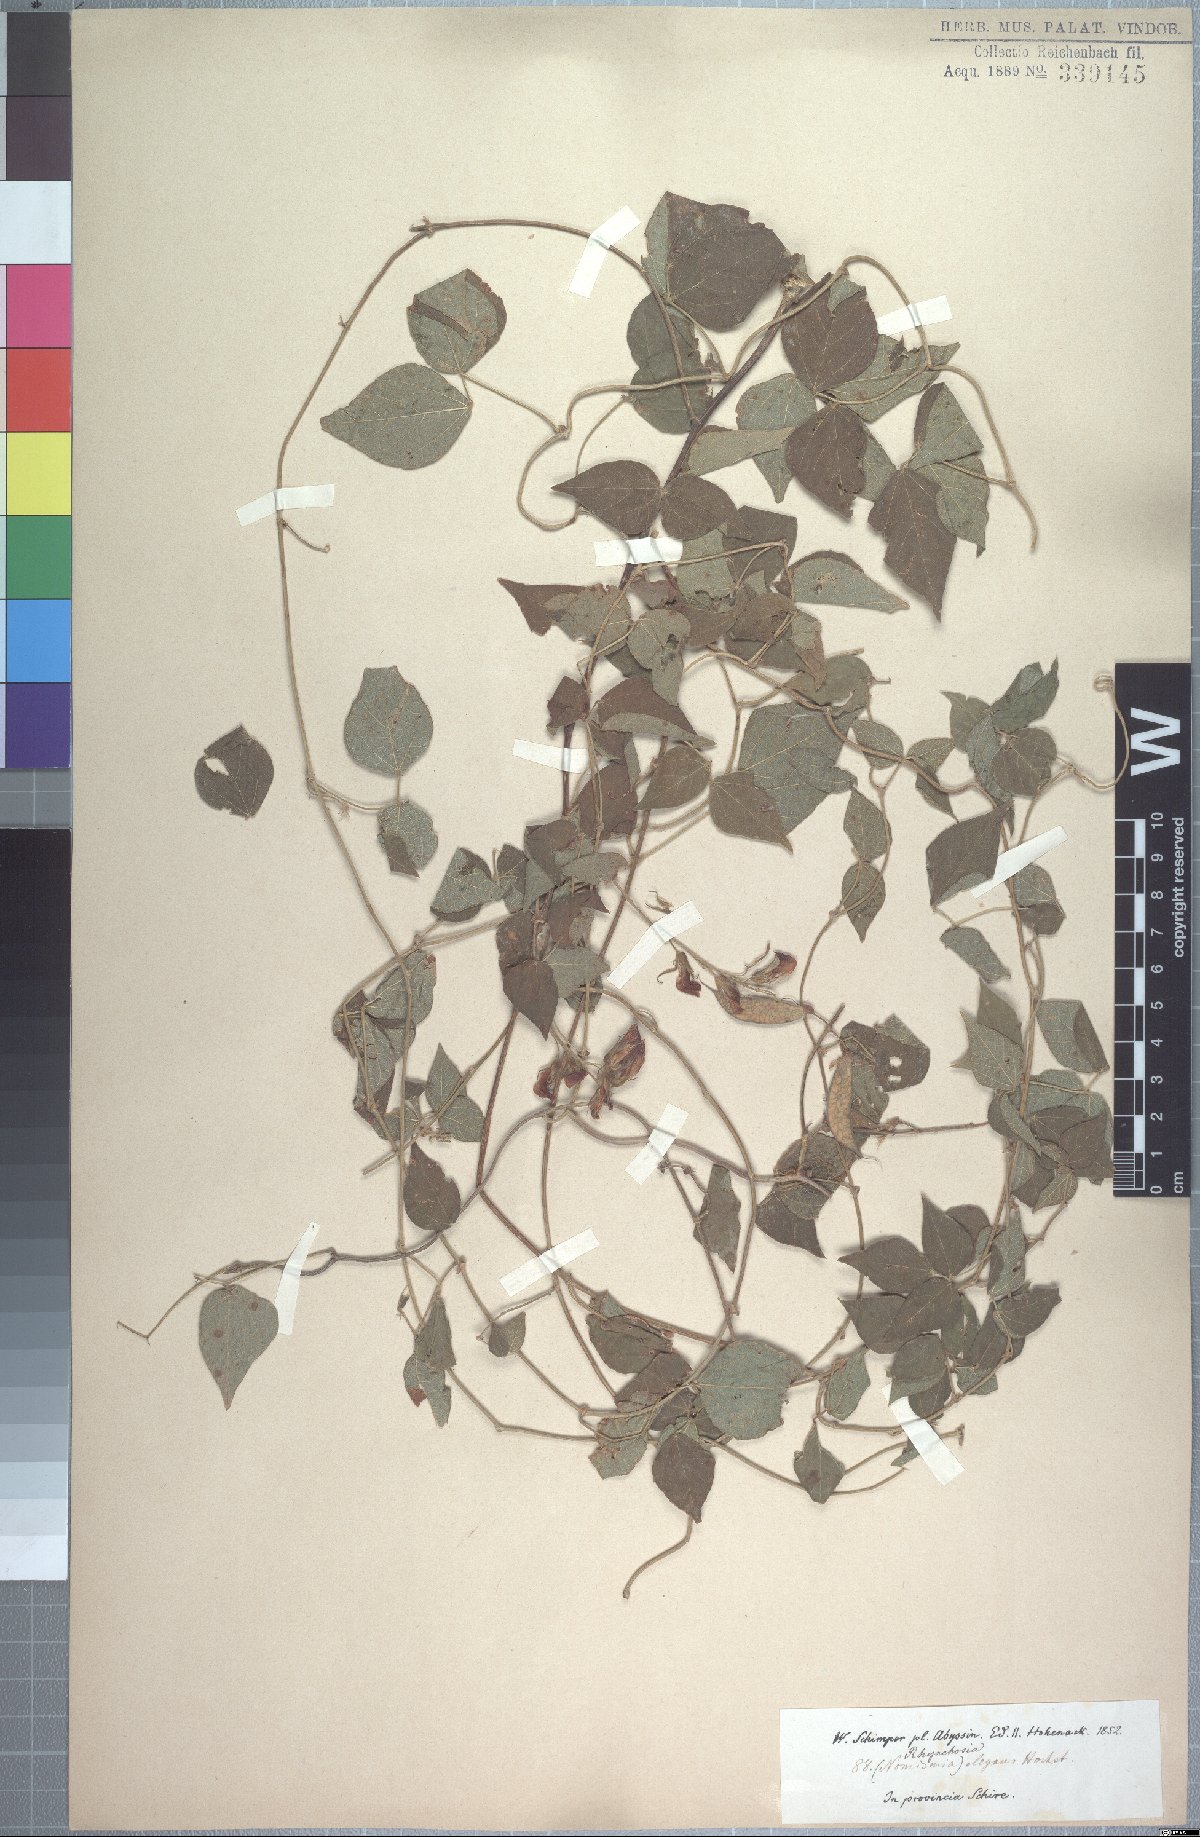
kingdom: Plantae
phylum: Tracheophyta
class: Magnoliopsida
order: Fabales
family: Fabaceae
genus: Rhynchosia
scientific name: Rhynchosia elegans
